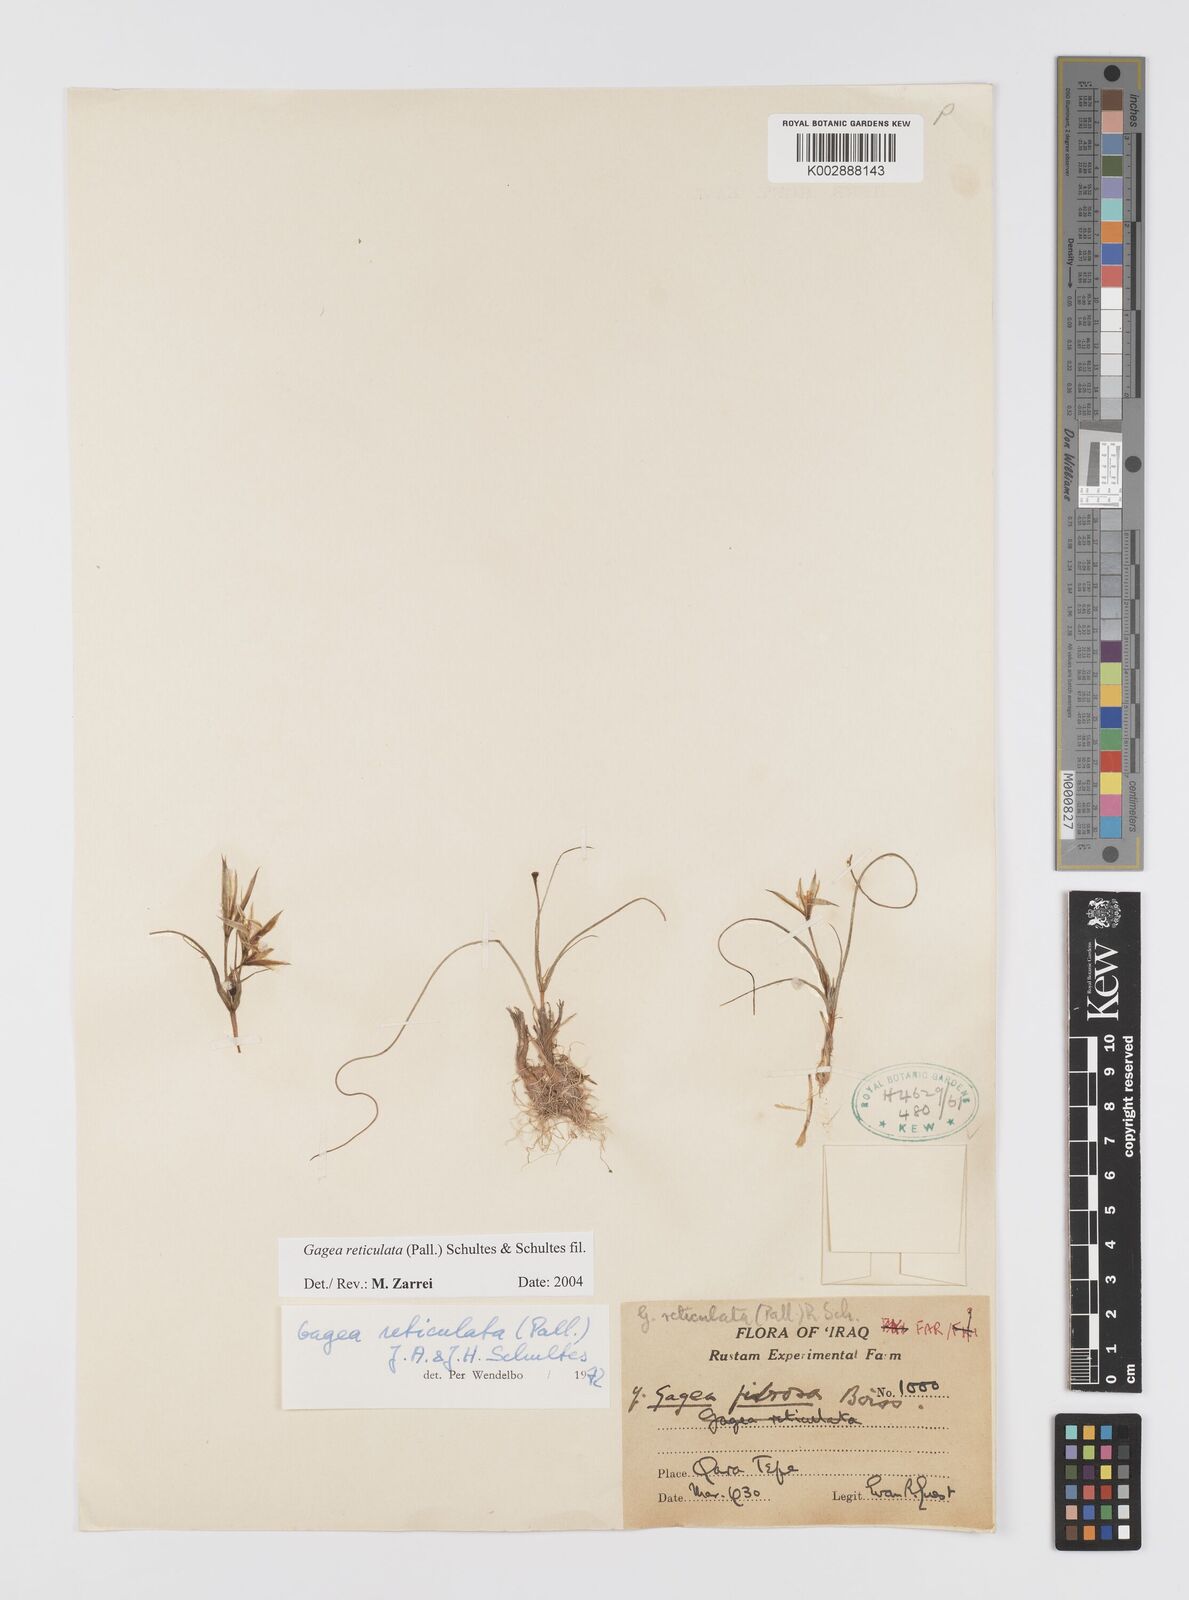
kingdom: Plantae
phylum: Tracheophyta
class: Liliopsida
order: Liliales
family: Liliaceae
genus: Gagea
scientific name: Gagea reticulata
